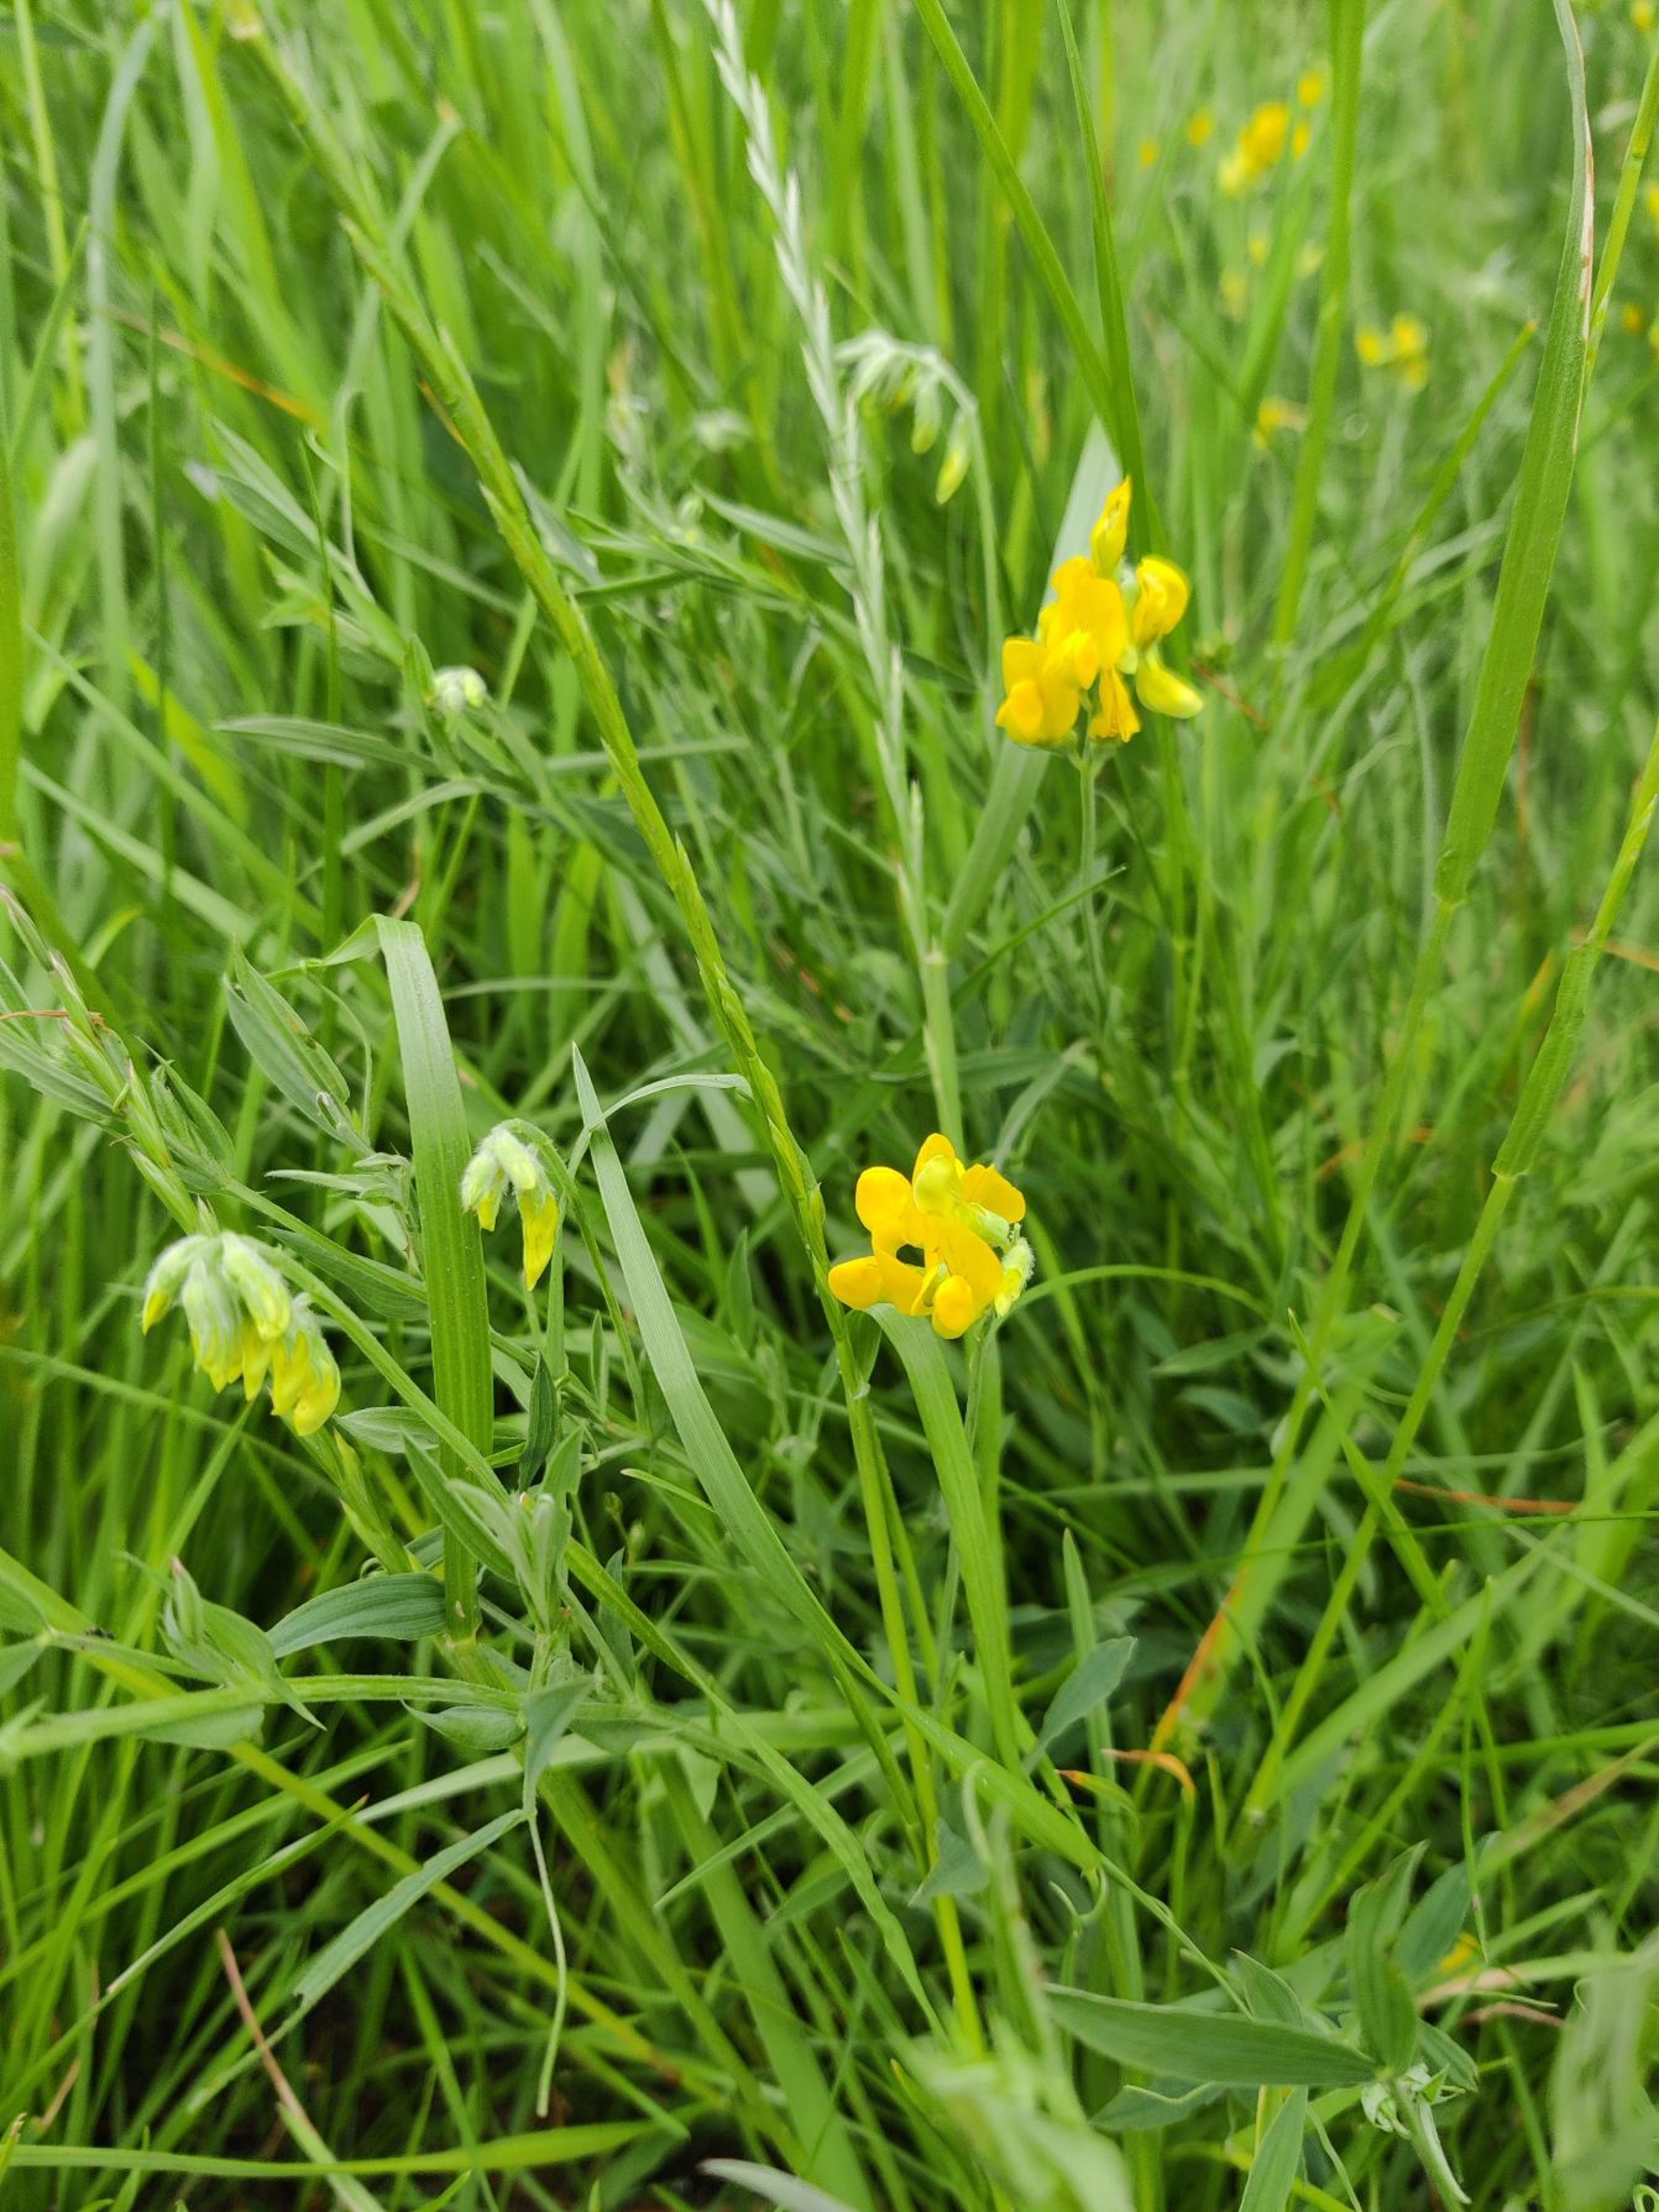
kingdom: Plantae
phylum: Tracheophyta
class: Magnoliopsida
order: Fabales
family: Fabaceae
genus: Lathyrus
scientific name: Lathyrus pratensis
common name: Gul fladbælg
